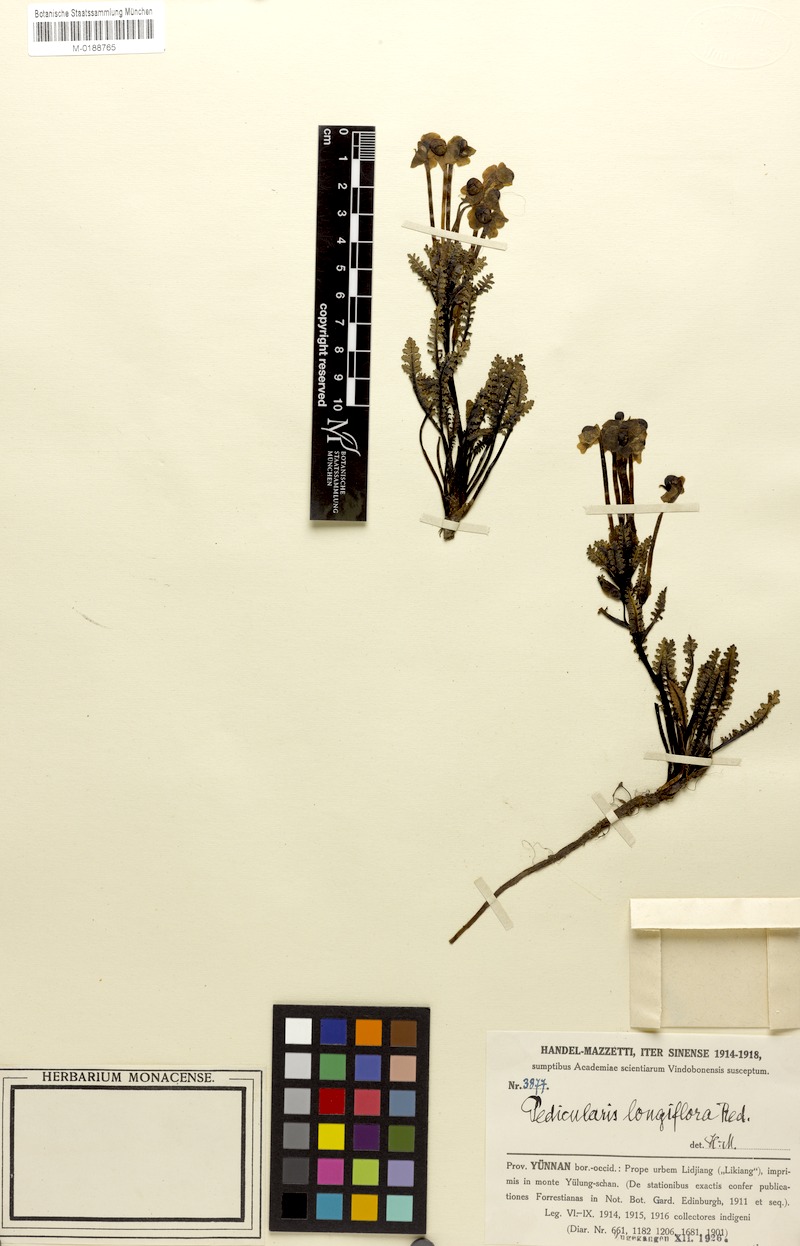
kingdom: Plantae
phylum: Tracheophyta
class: Magnoliopsida
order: Lamiales
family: Orobanchaceae
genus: Pedicularis
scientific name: Pedicularis longiflora
